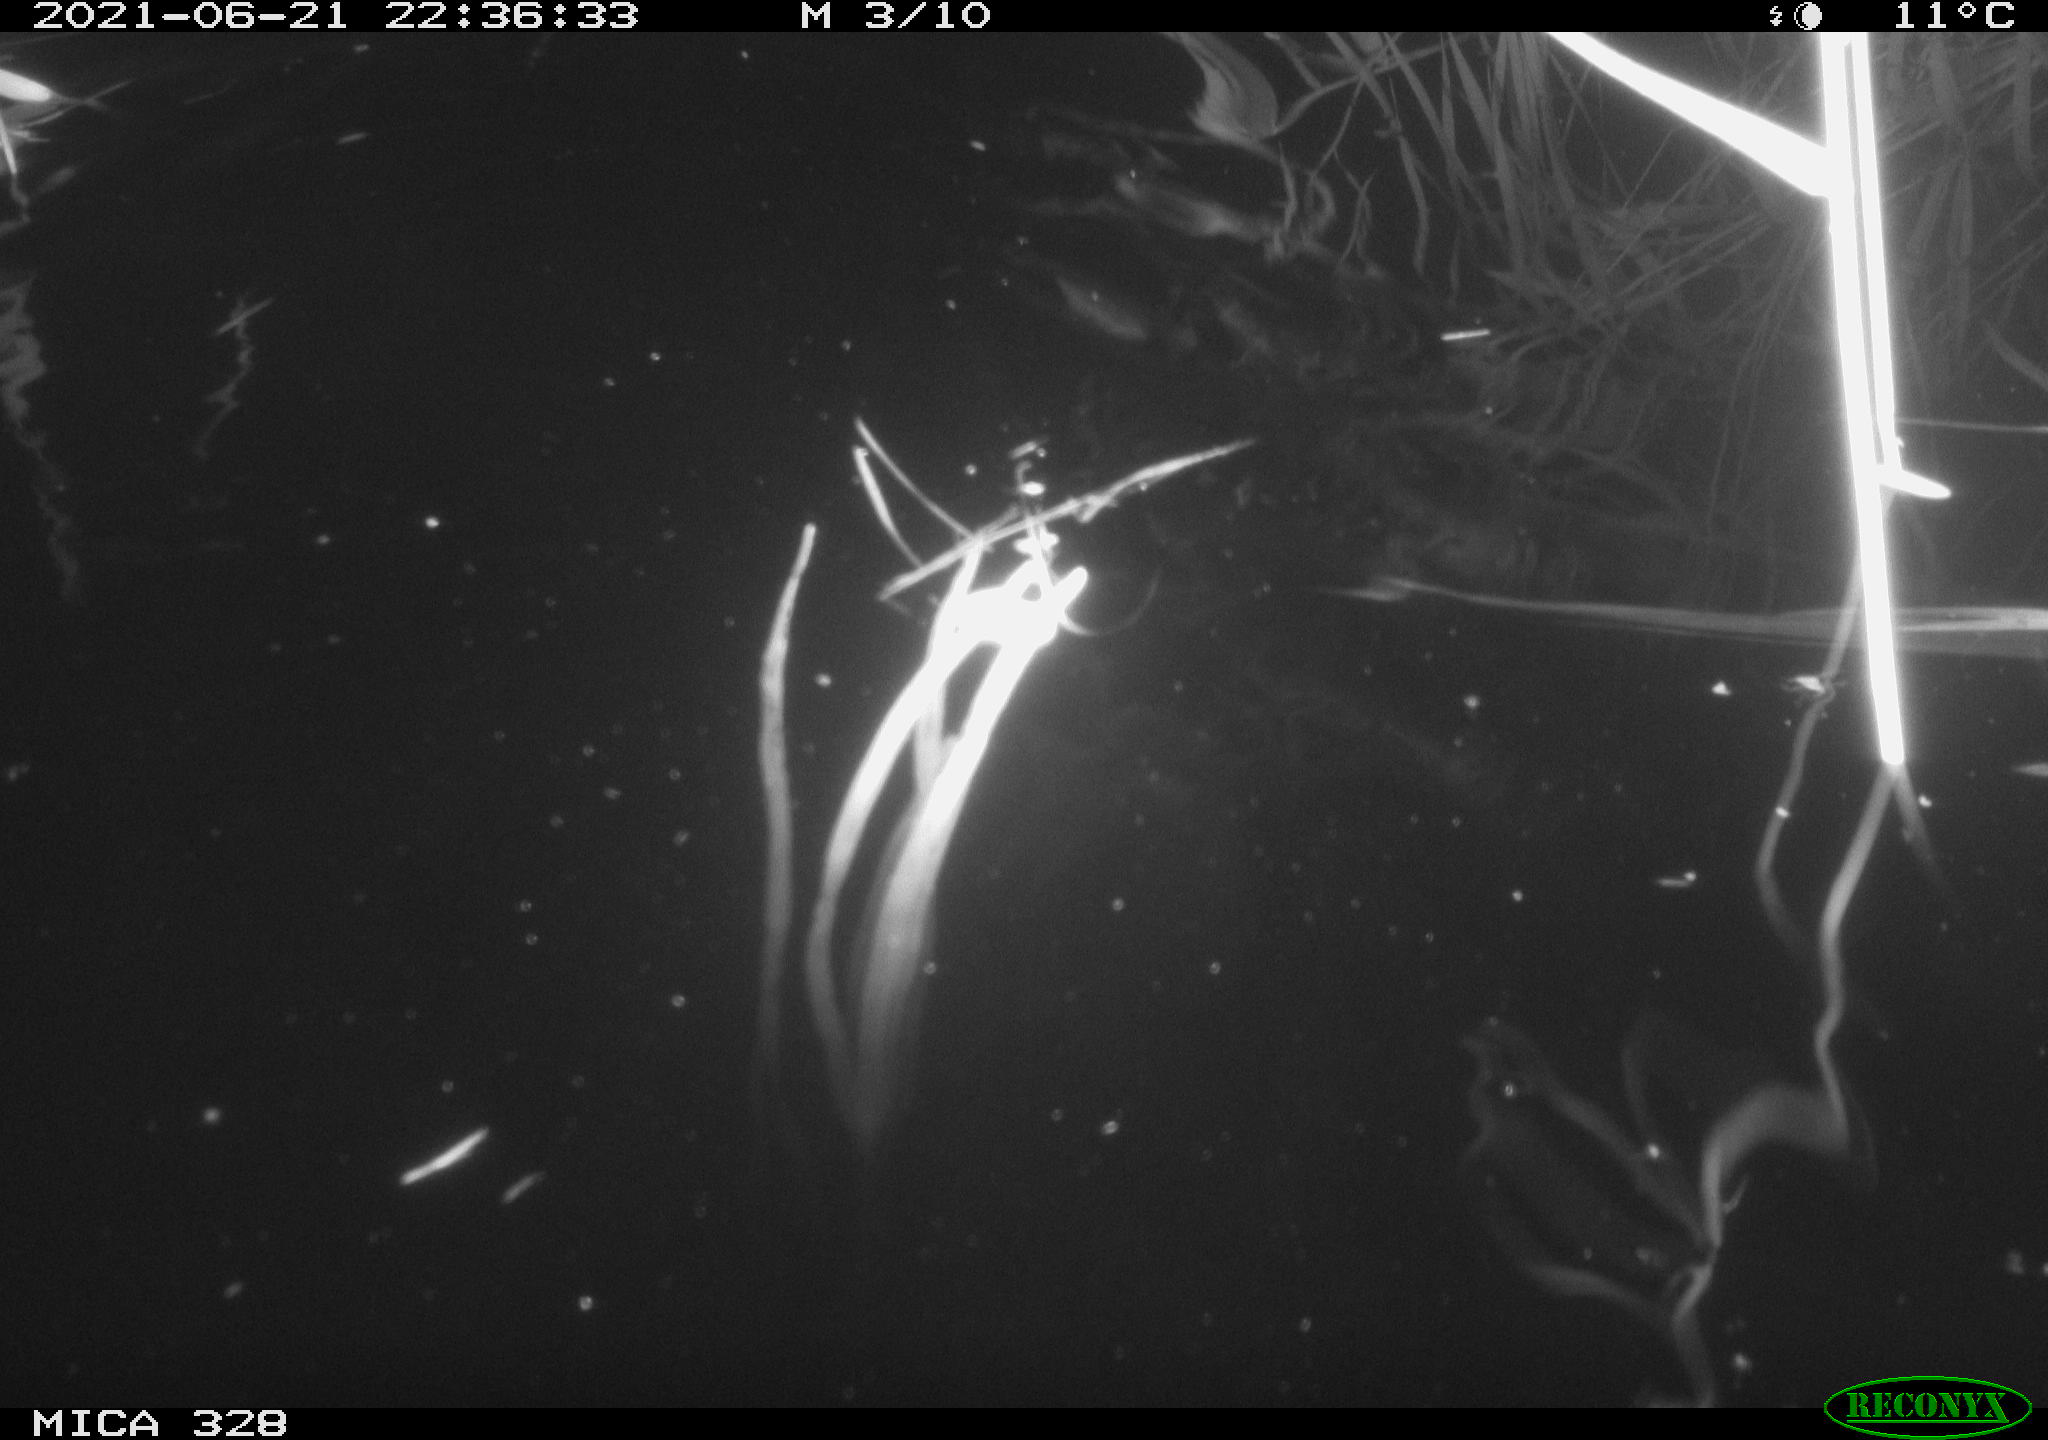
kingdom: Animalia
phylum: Chordata
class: Mammalia
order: Rodentia
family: Cricetidae
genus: Ondatra
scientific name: Ondatra zibethicus
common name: Muskrat
